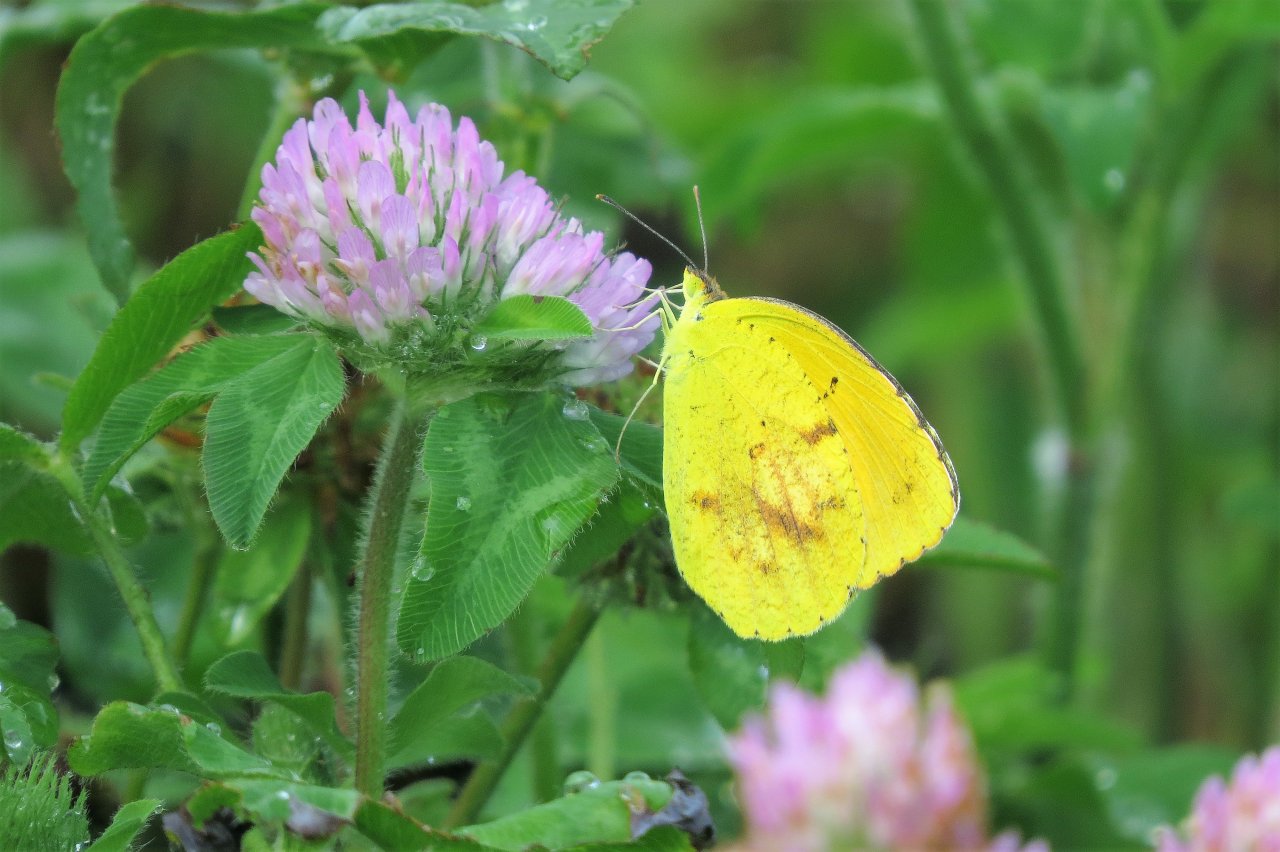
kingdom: Animalia
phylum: Arthropoda
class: Insecta
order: Lepidoptera
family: Pieridae
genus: Abaeis
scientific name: Abaeis nicippe
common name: Sleepy Orange
